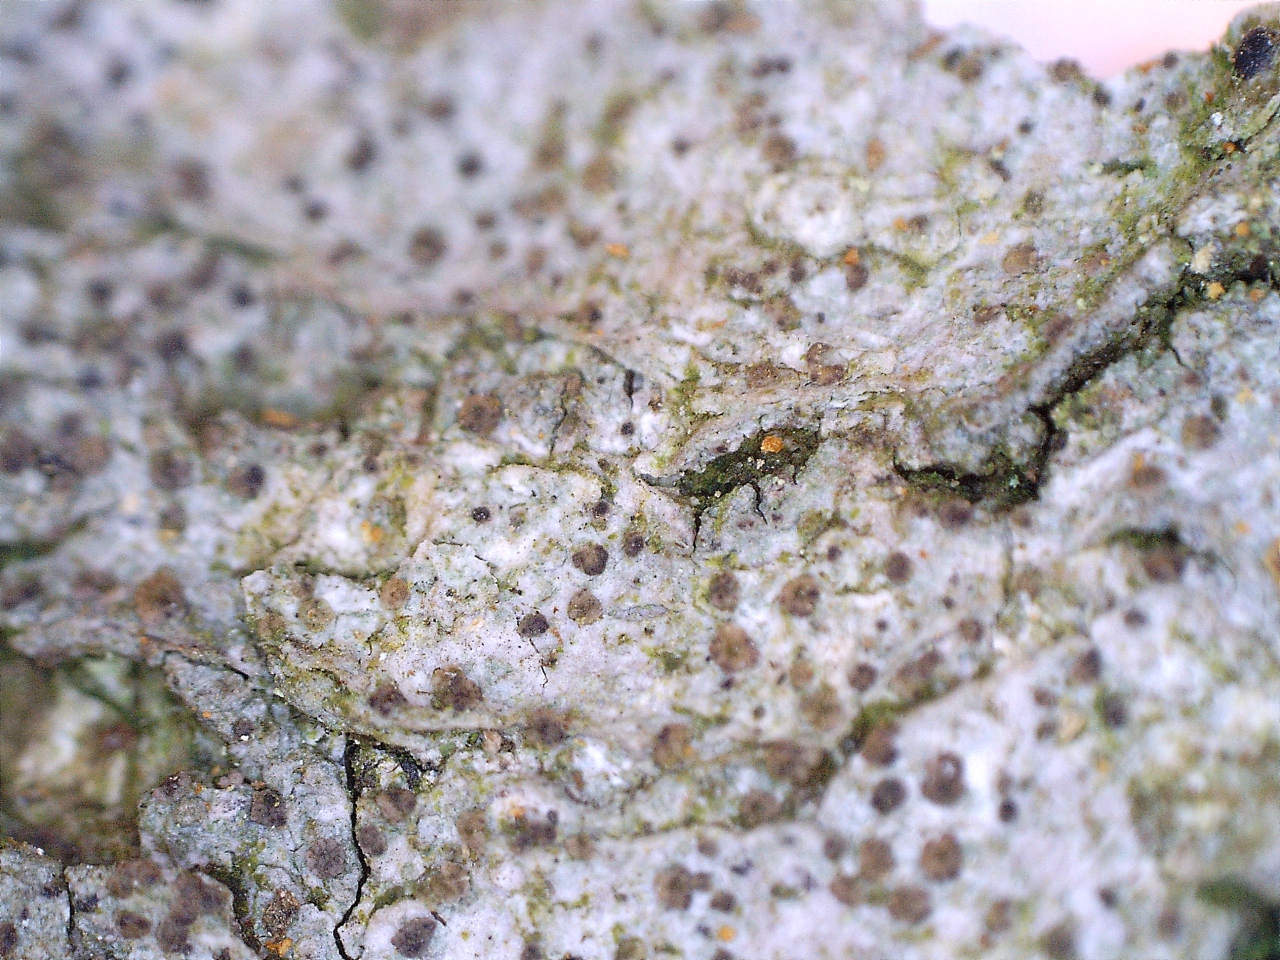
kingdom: Fungi
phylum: Ascomycota
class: Lecanoromycetes
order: Gyalectales
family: Gyalectaceae
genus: Pachyphiale
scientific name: Pachyphiale carneola
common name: rødbrun gammelskovslav
